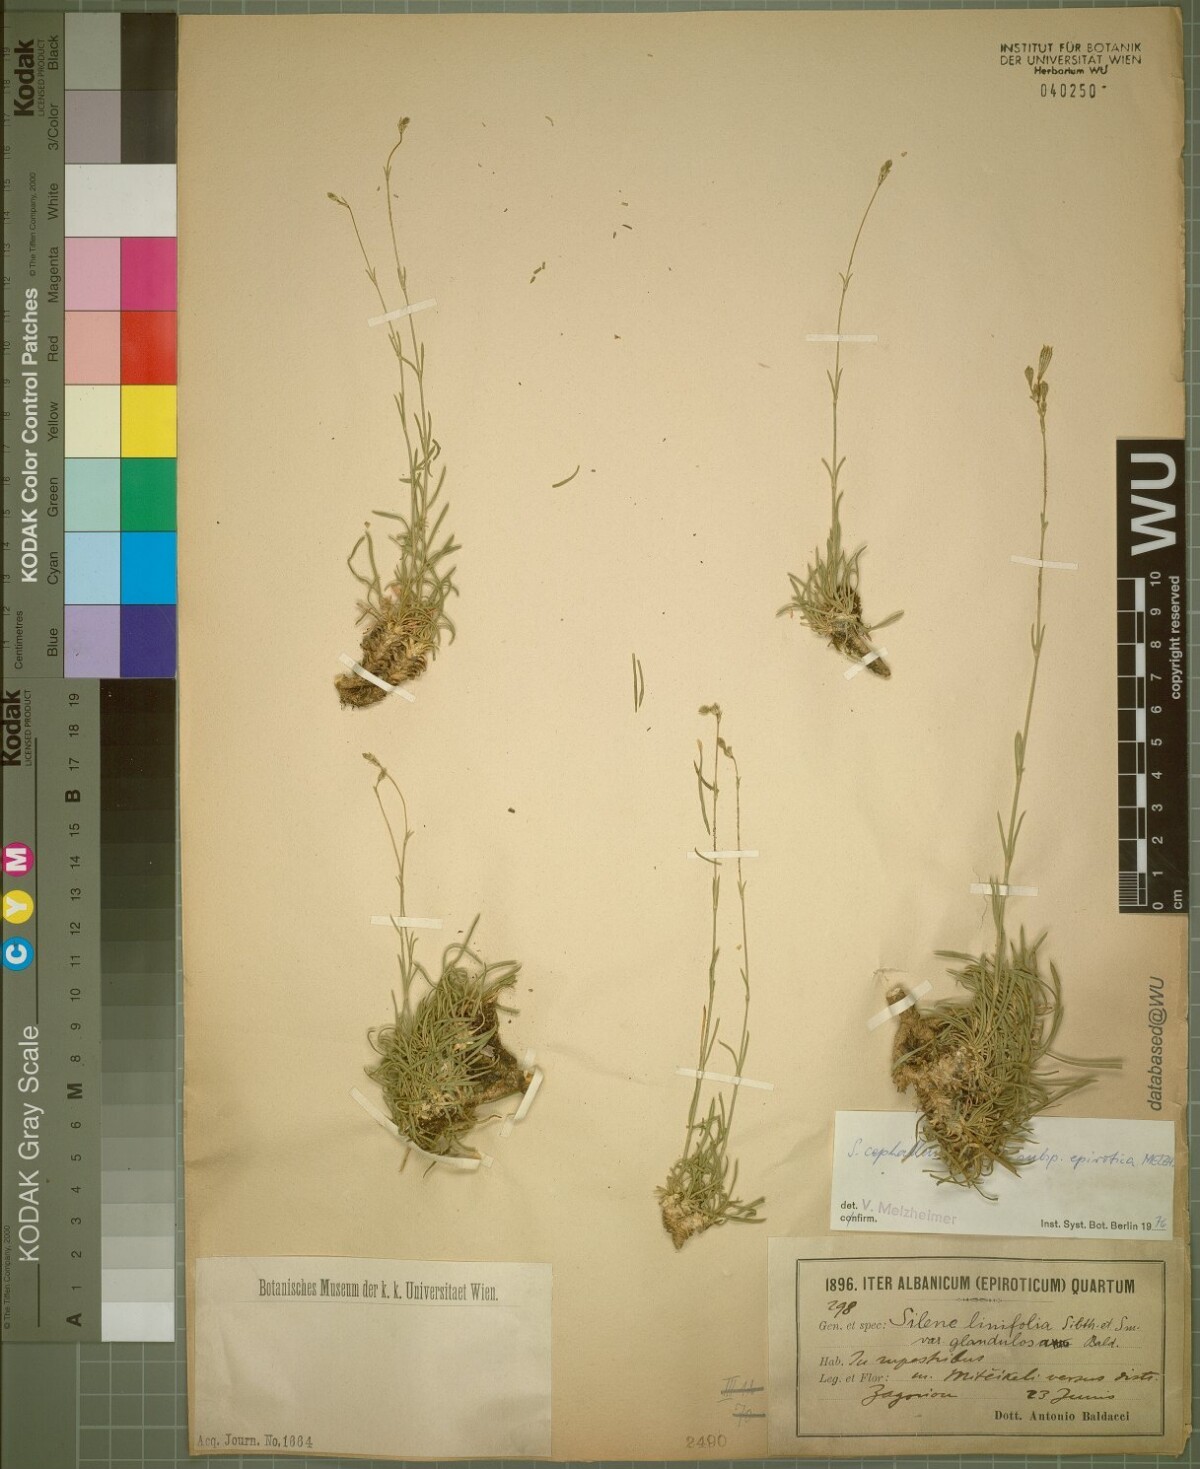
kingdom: Plantae
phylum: Tracheophyta
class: Magnoliopsida
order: Caryophyllales
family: Caryophyllaceae
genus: Silene
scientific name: Silene cephallenia
